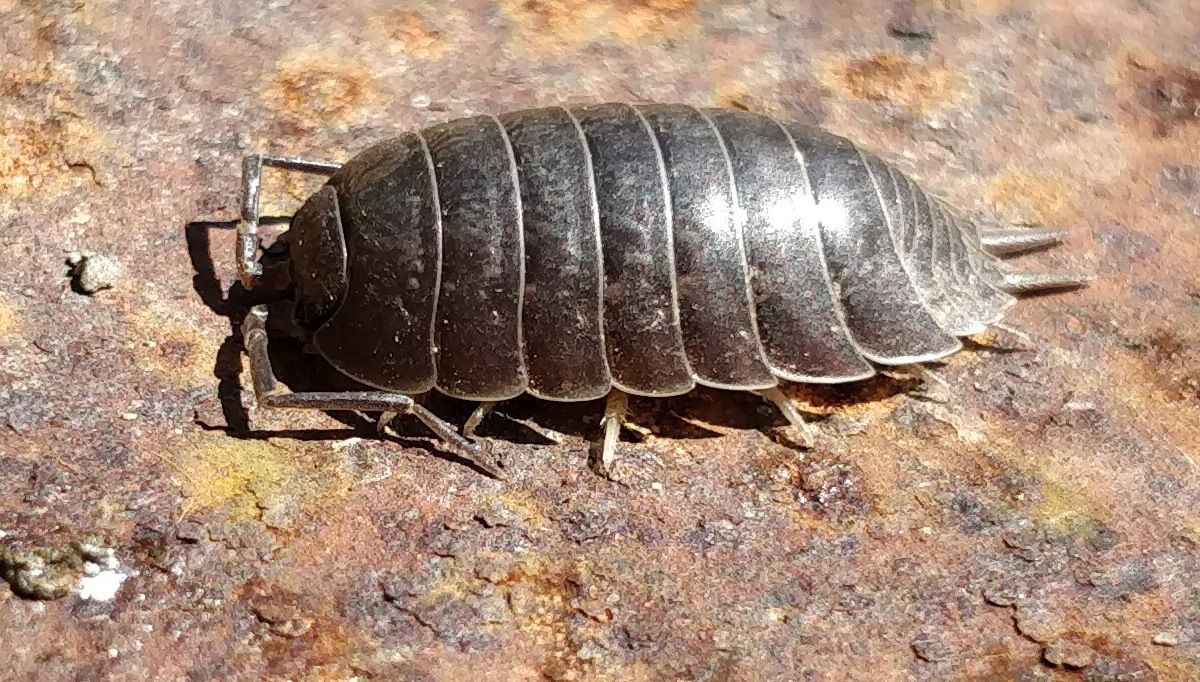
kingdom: Animalia
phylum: Arthropoda
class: Malacostraca
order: Isopoda
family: Porcellionidae
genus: Porcellio
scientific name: Porcellio laevis
